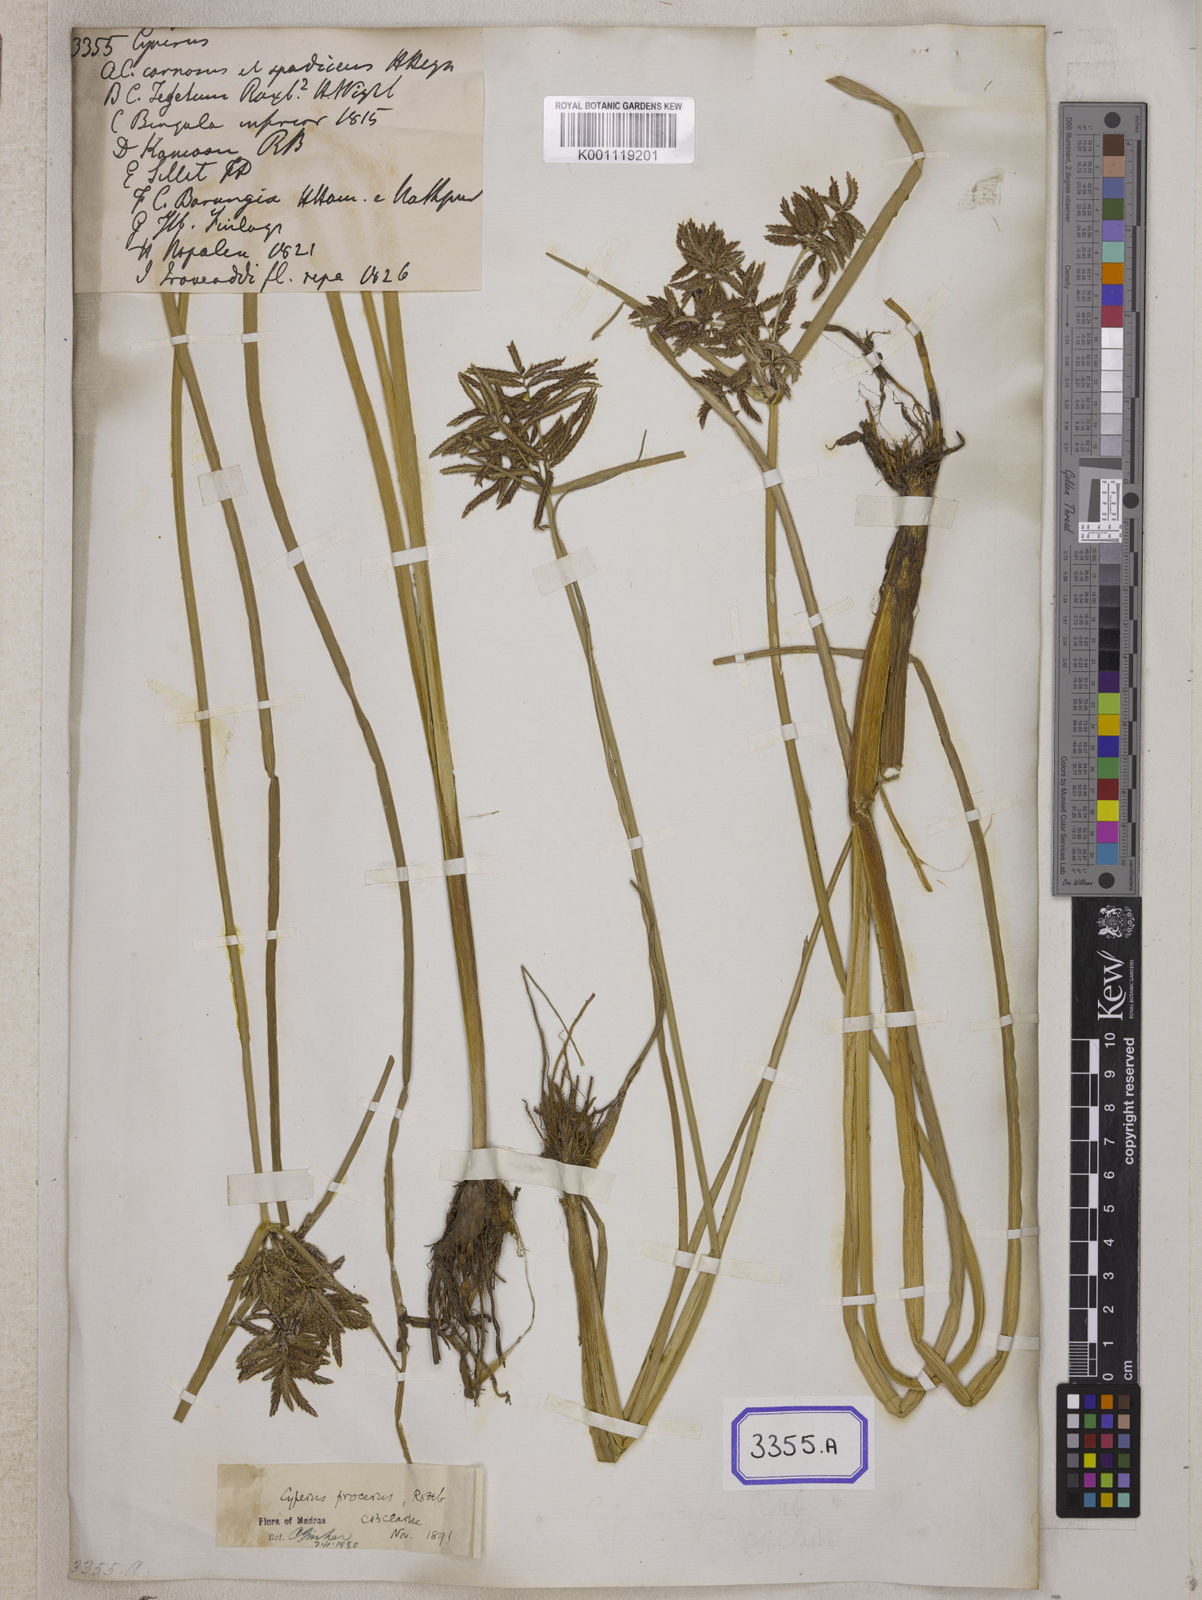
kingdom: Plantae
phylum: Tracheophyta
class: Liliopsida
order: Poales
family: Cyperaceae
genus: Cyperus
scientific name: Cyperus
